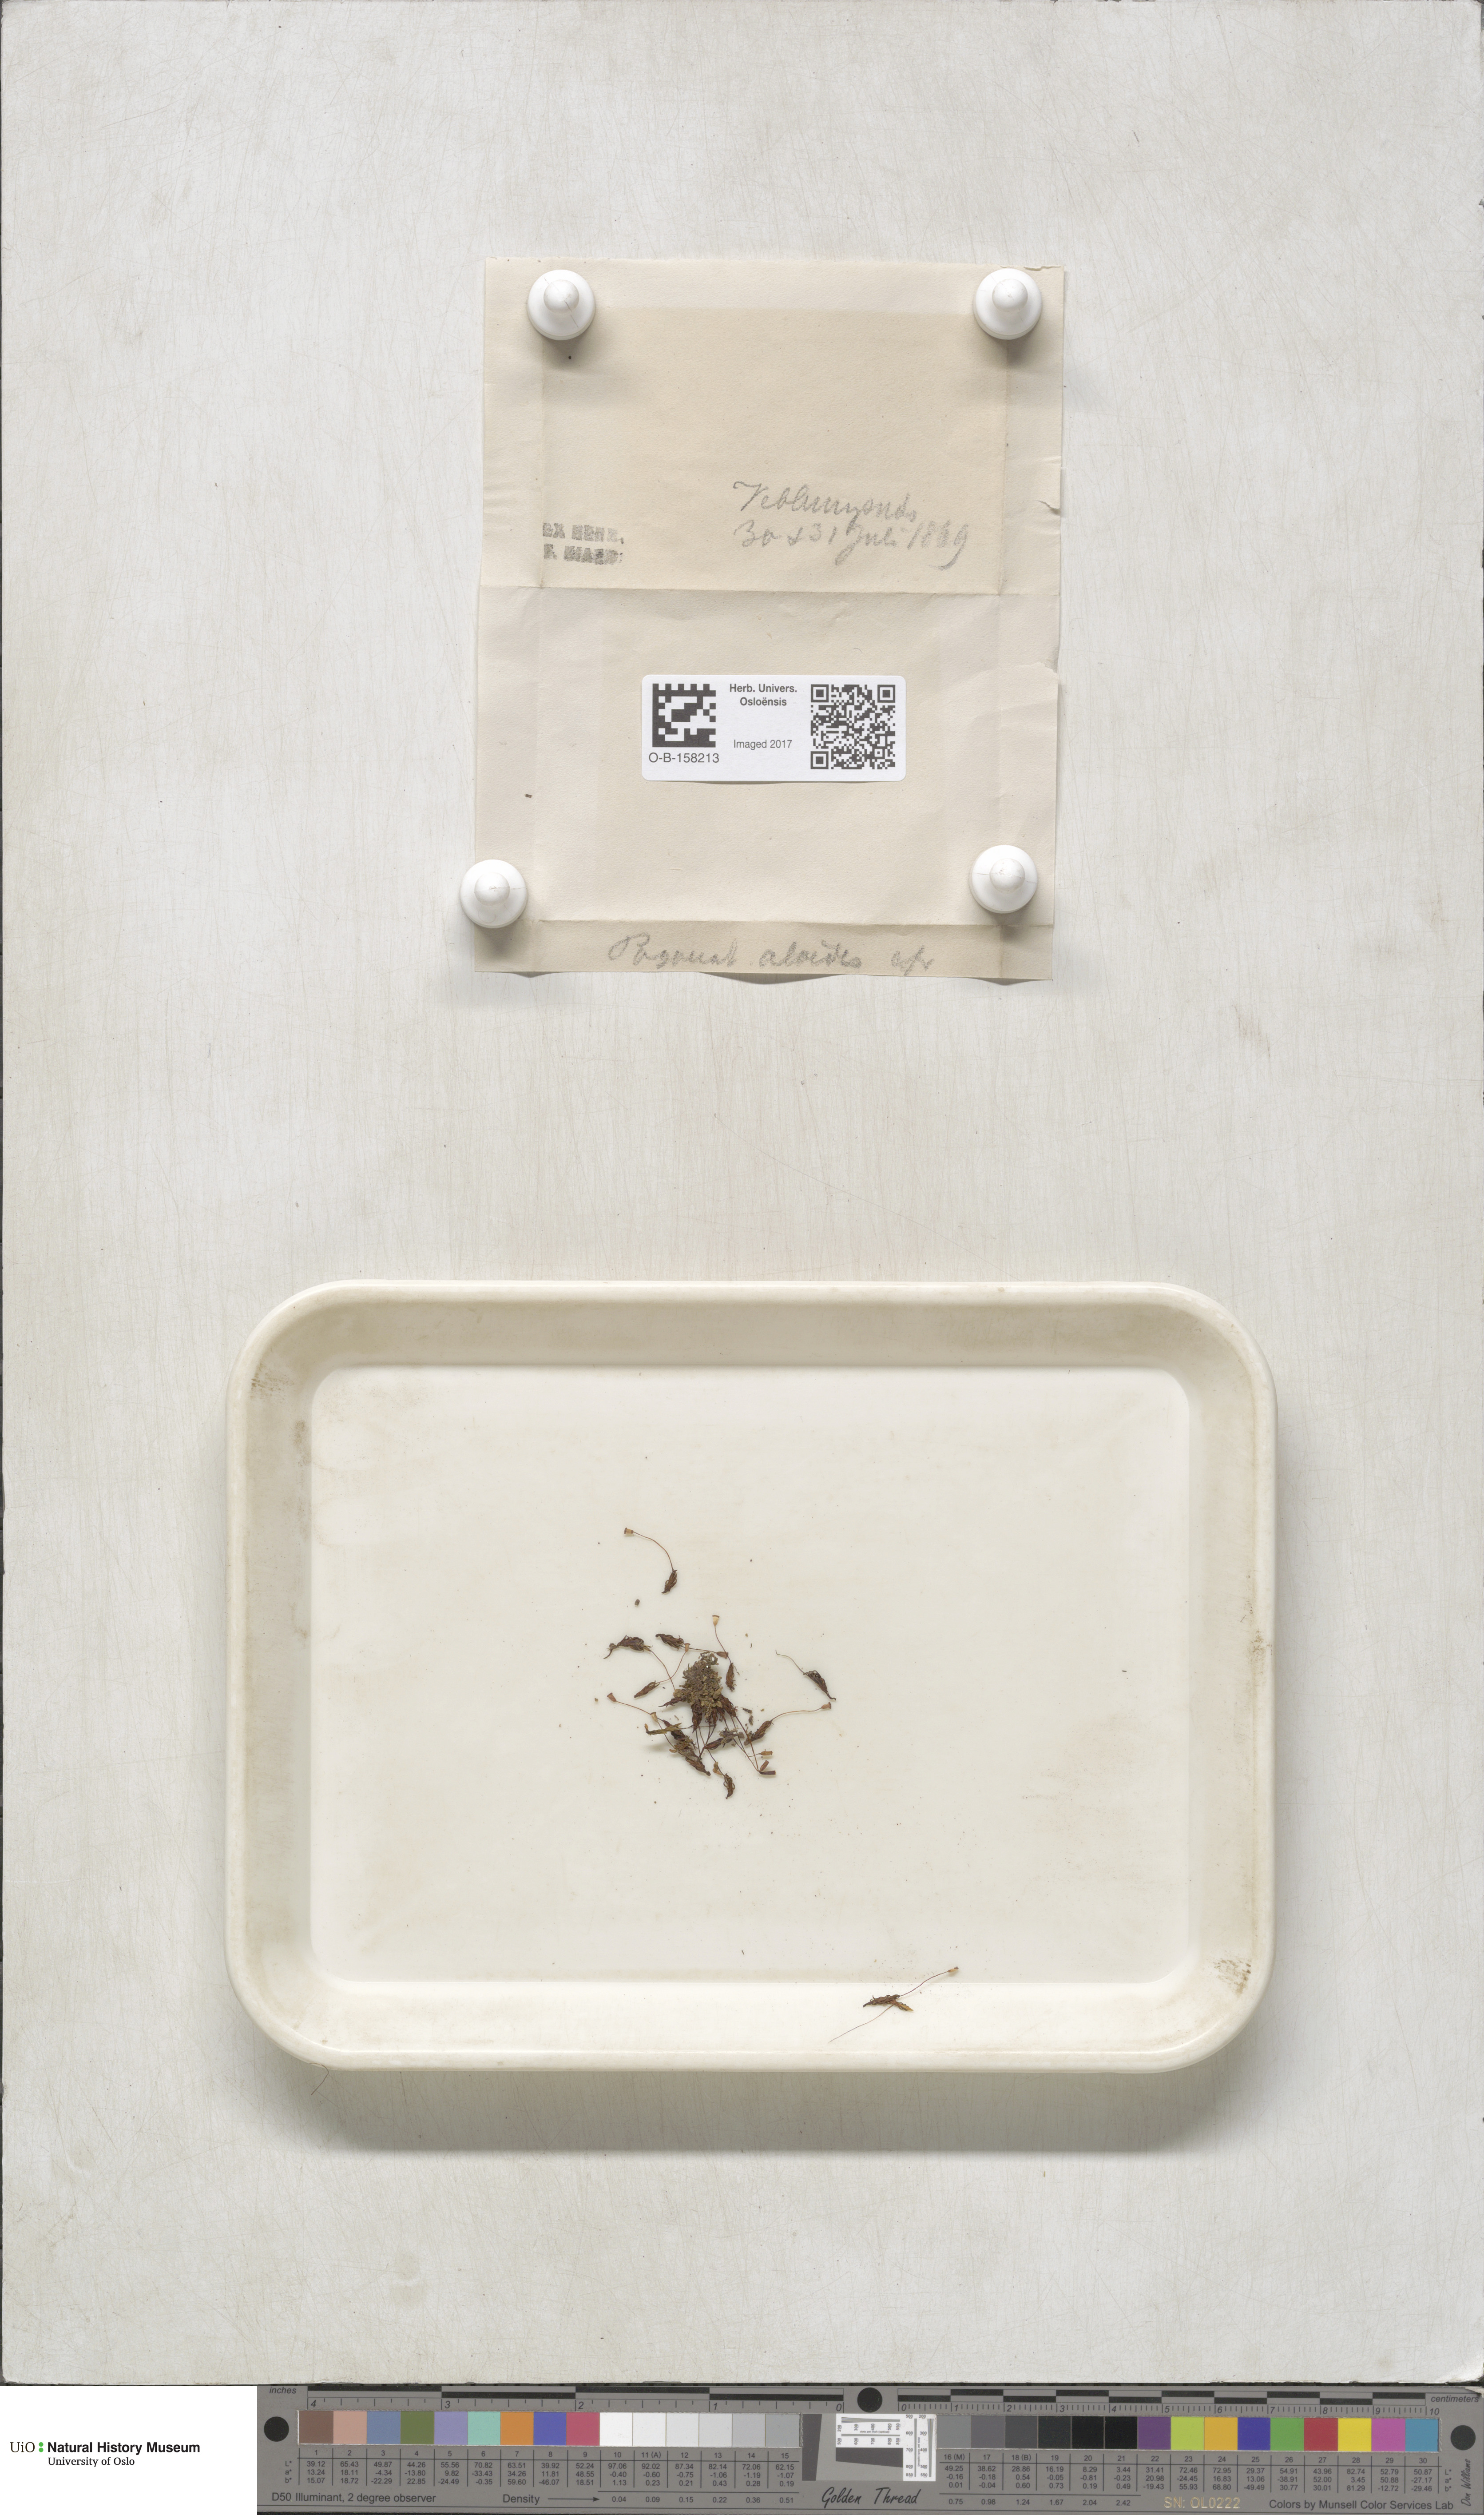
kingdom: Plantae
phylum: Bryophyta
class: Polytrichopsida
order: Polytrichales
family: Polytrichaceae
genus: Pogonatum
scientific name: Pogonatum aloides
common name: Aloe haircap
